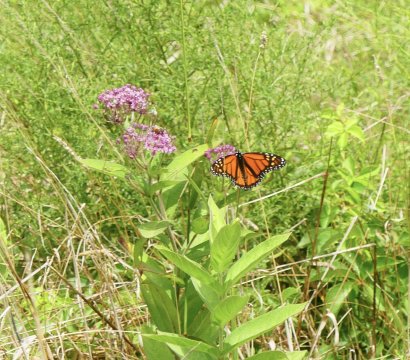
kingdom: Animalia
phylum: Arthropoda
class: Insecta
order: Lepidoptera
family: Nymphalidae
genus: Danaus
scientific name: Danaus plexippus
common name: Monarch
